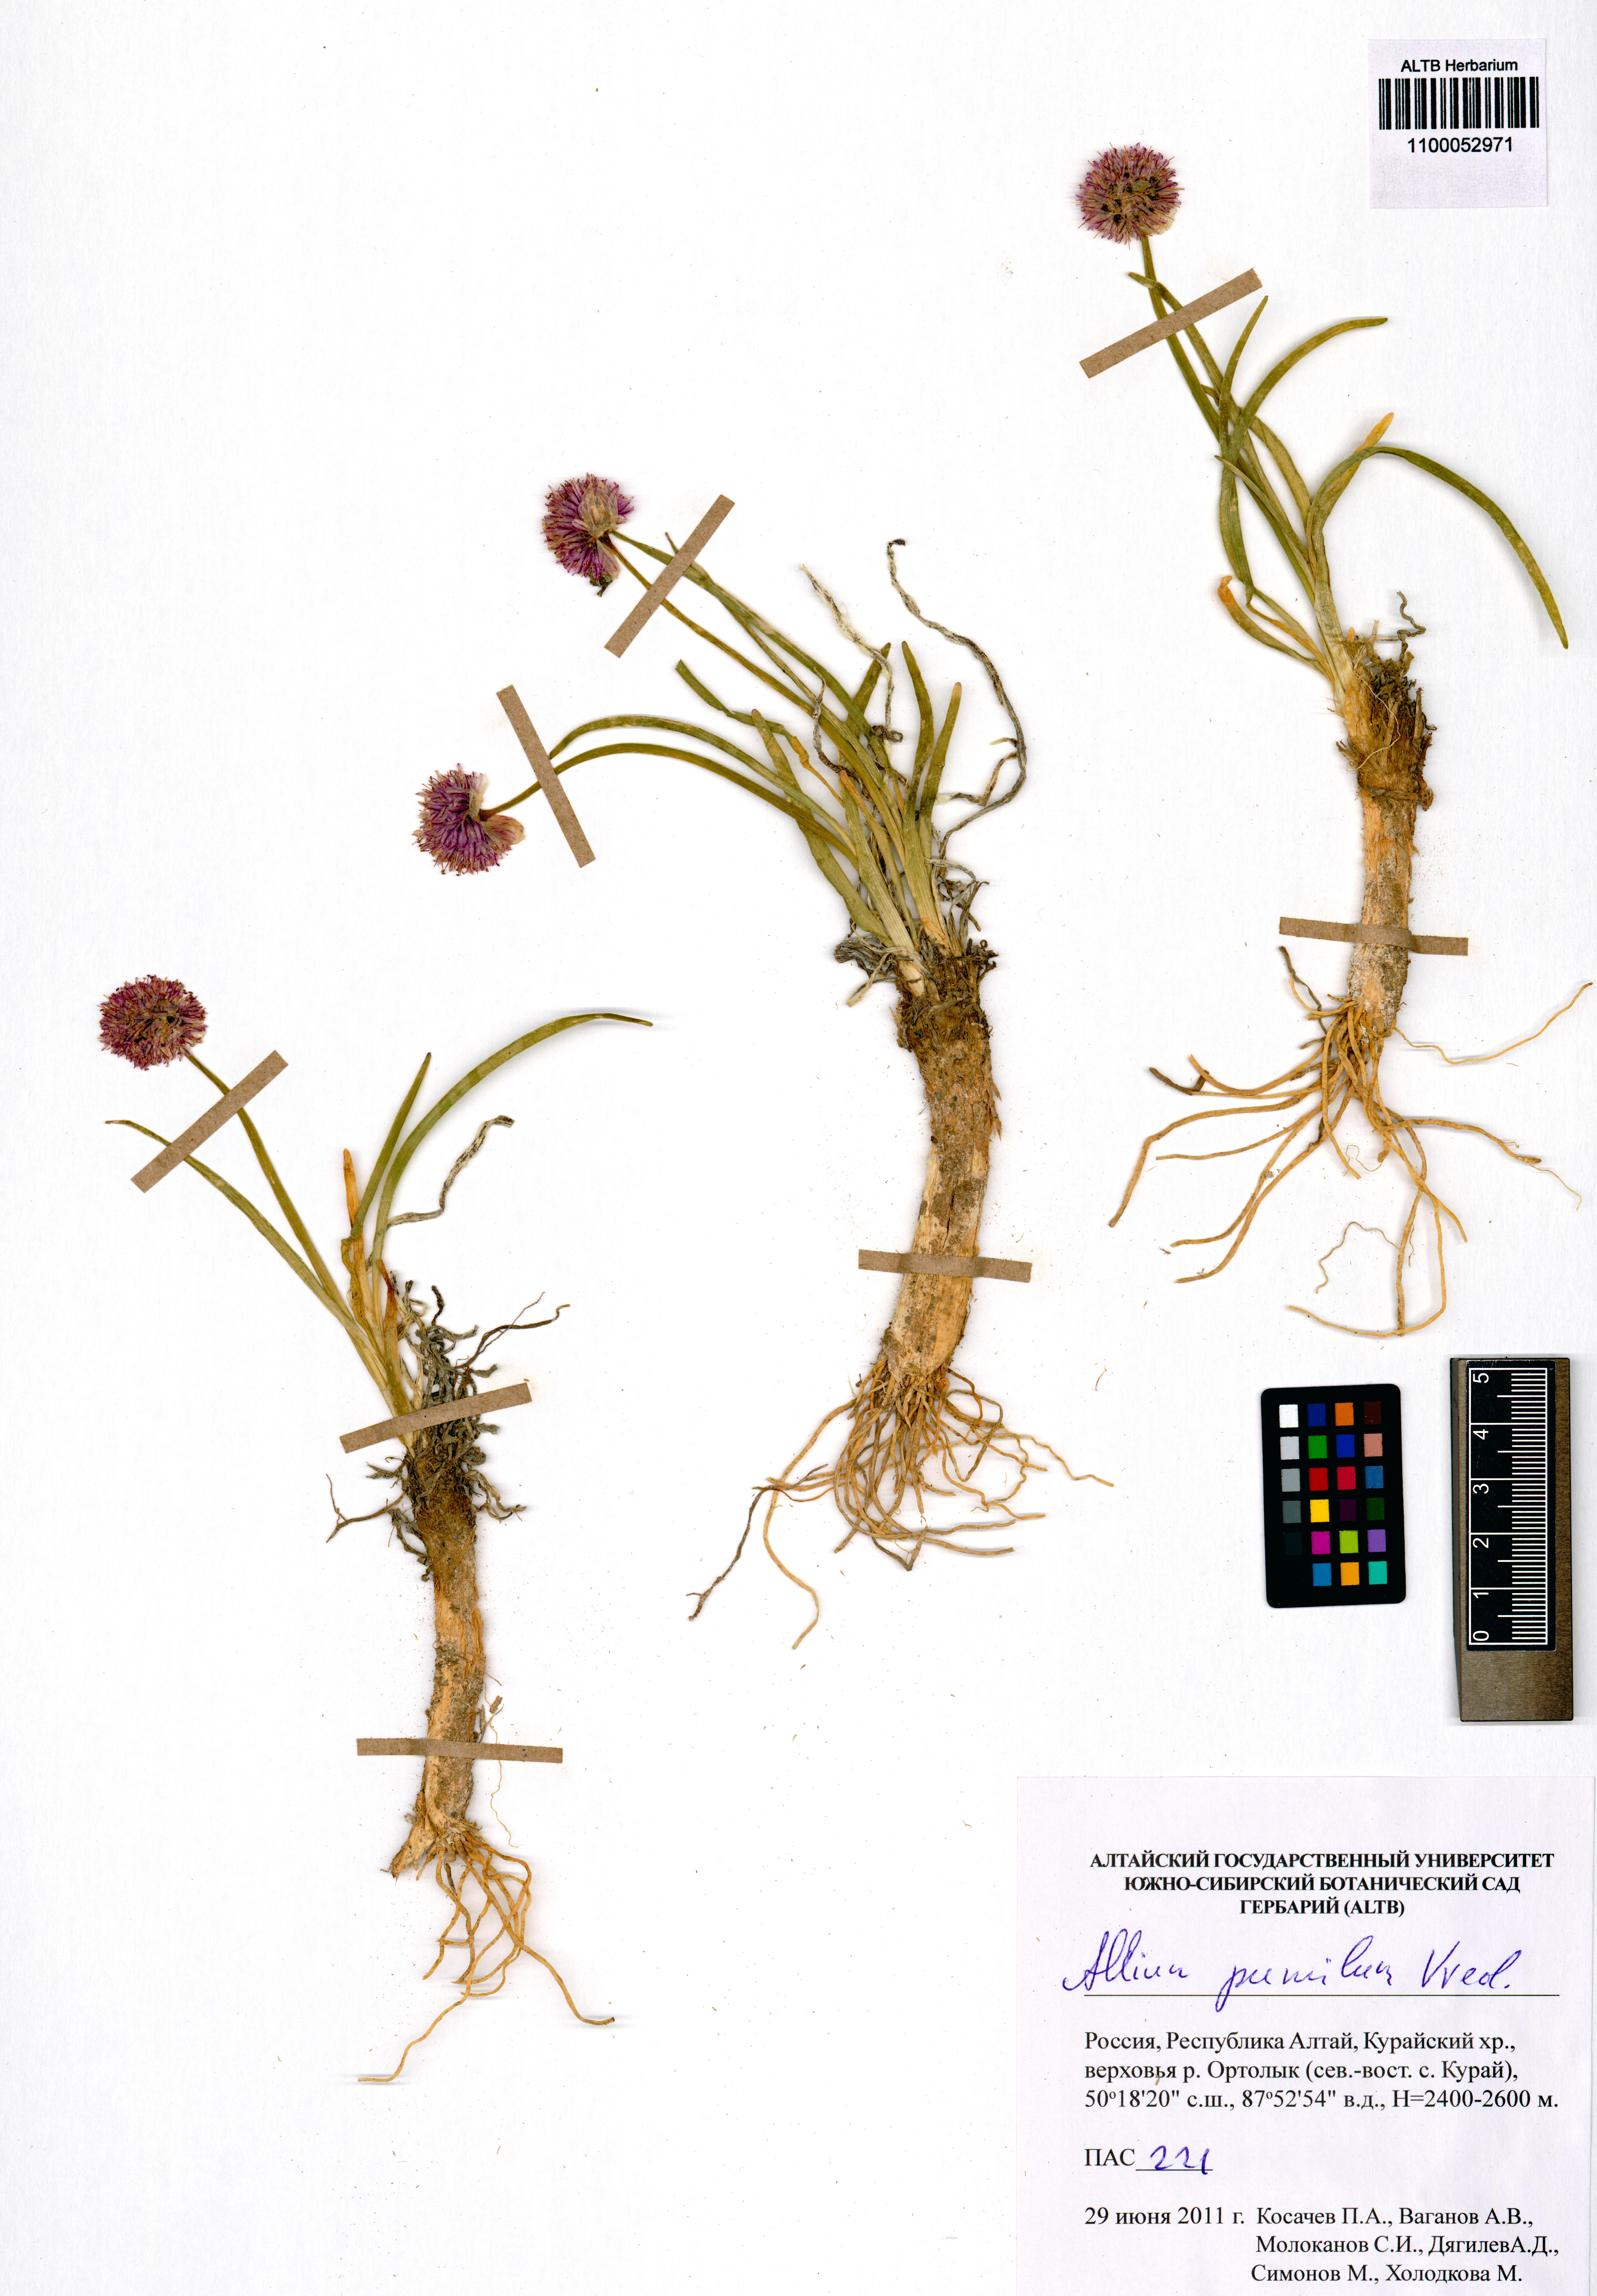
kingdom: Plantae
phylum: Tracheophyta
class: Liliopsida
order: Asparagales
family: Amaryllidaceae
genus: Allium
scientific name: Allium pumilum
